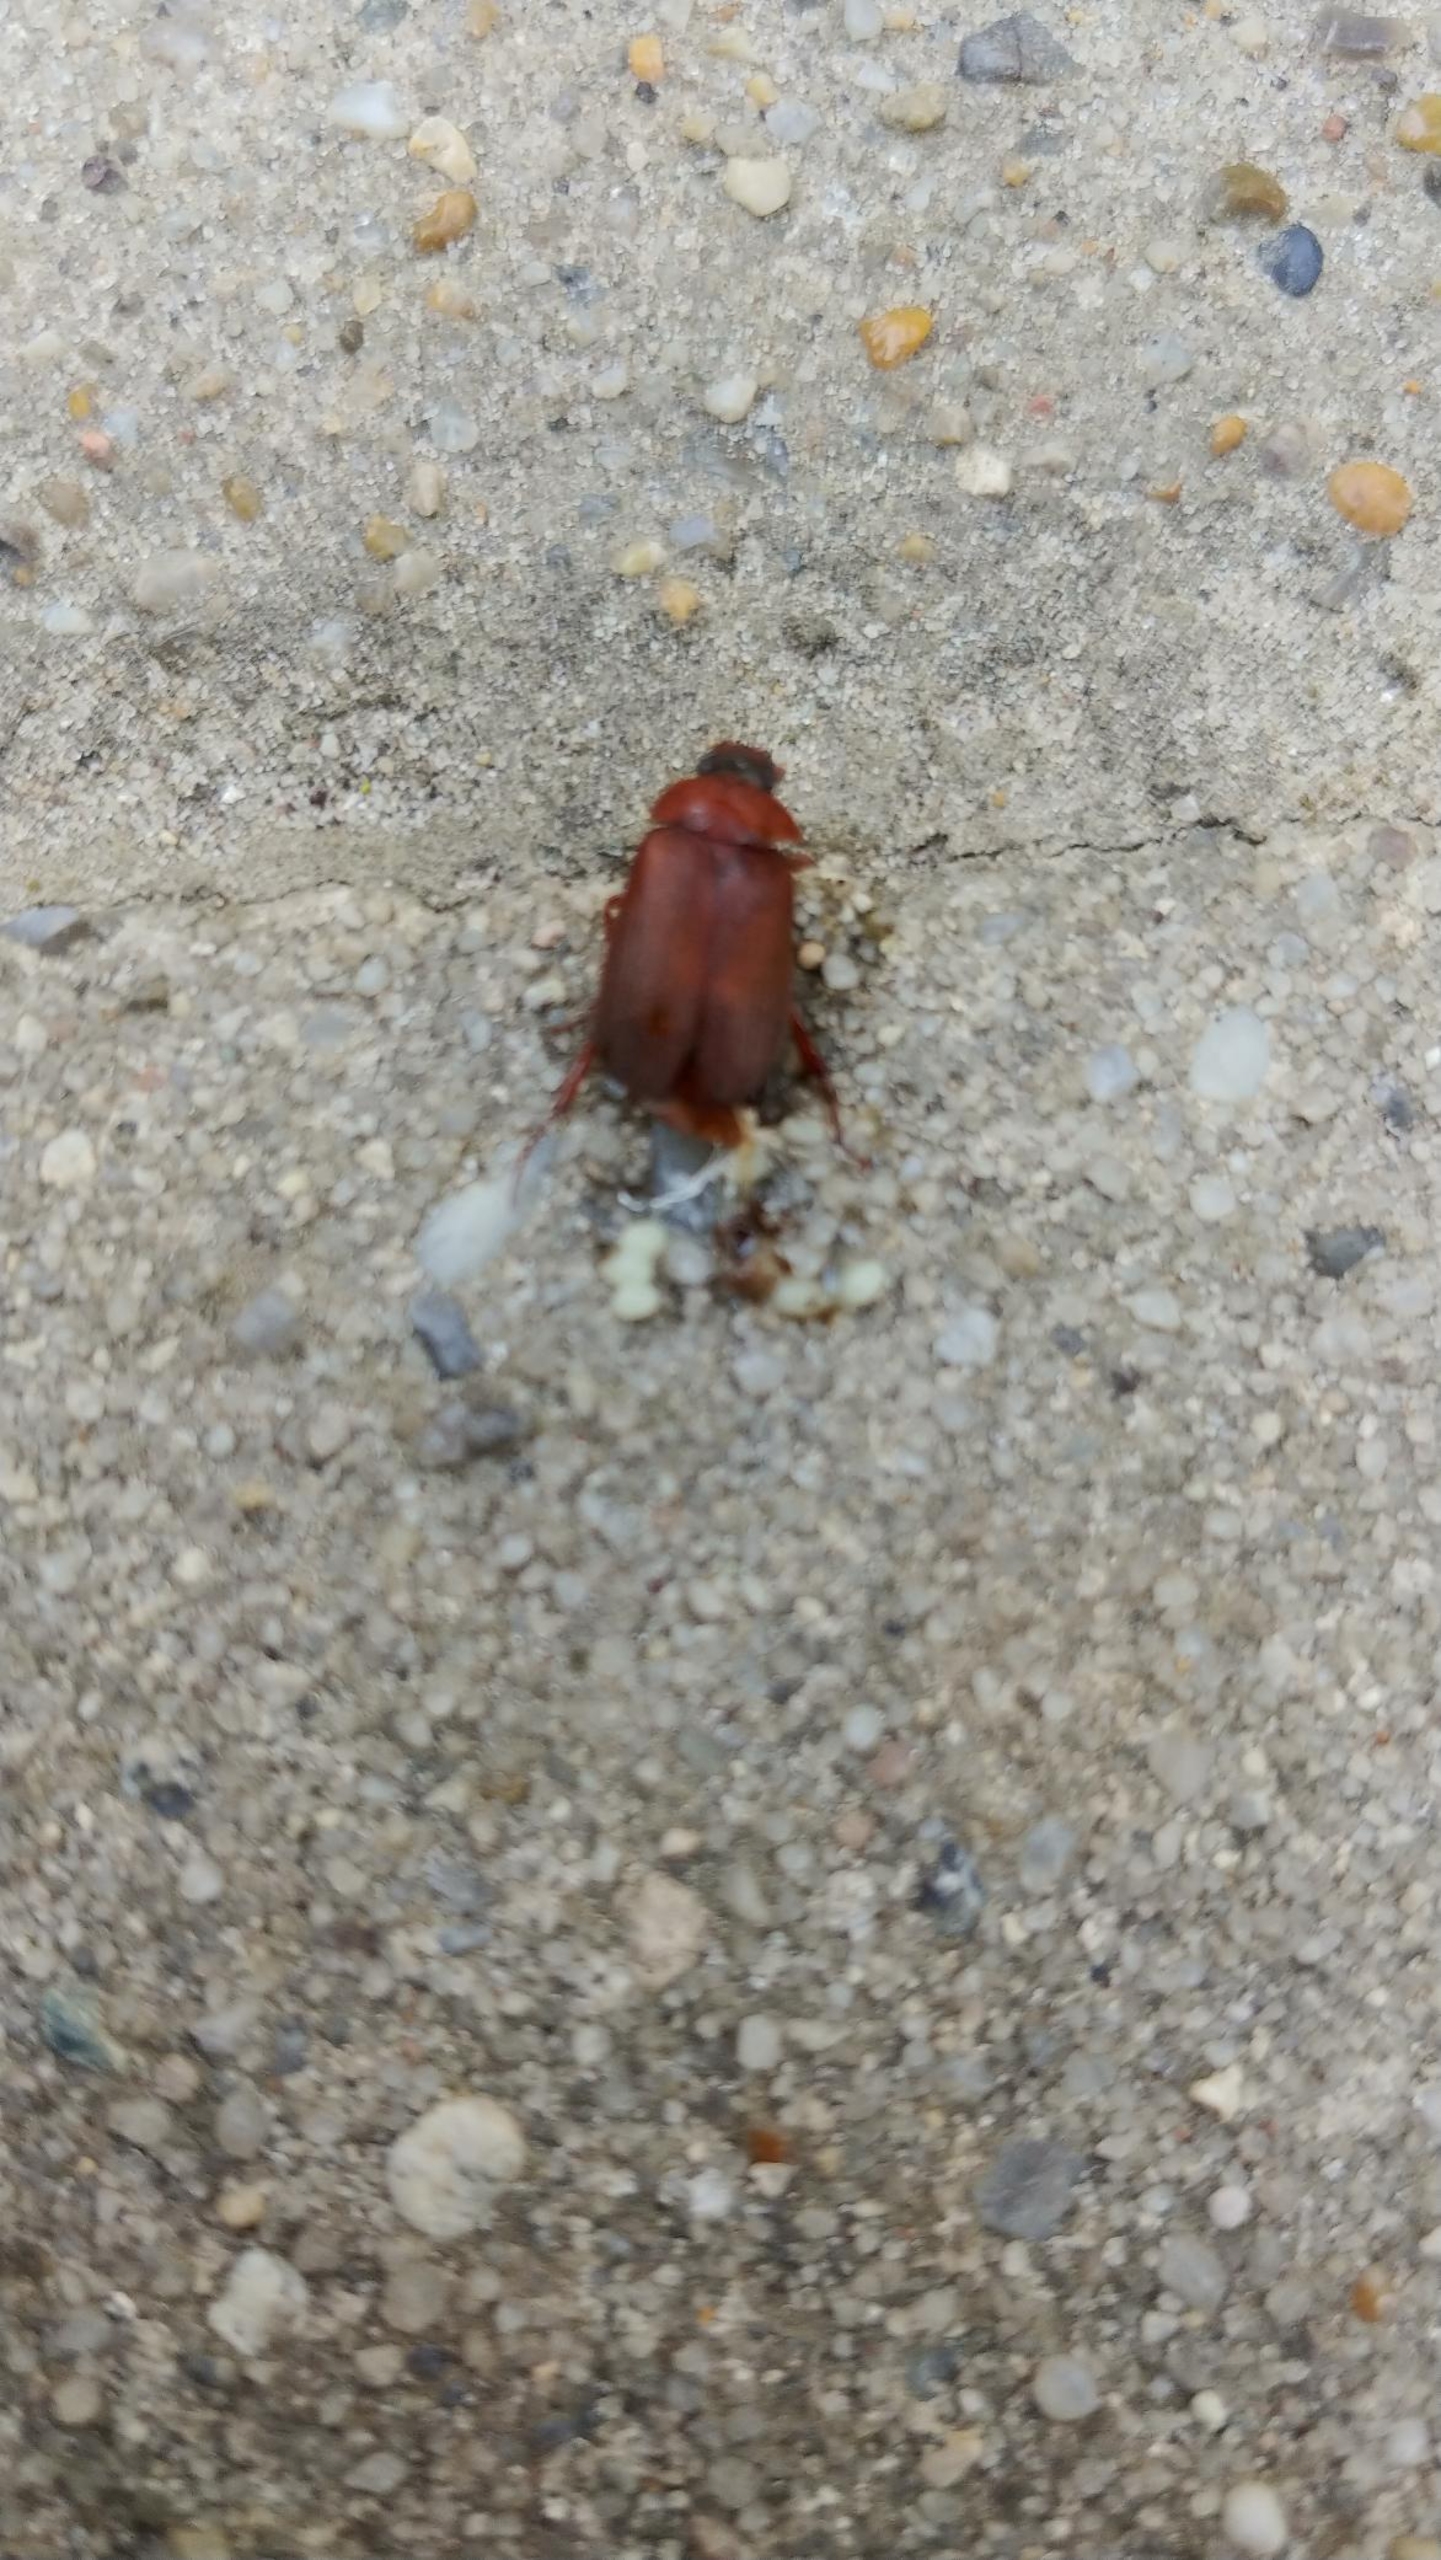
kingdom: Animalia
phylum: Arthropoda
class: Insecta
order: Coleoptera
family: Scarabaeidae
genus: Serica
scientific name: Serica brunnea
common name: Natoldenborre
